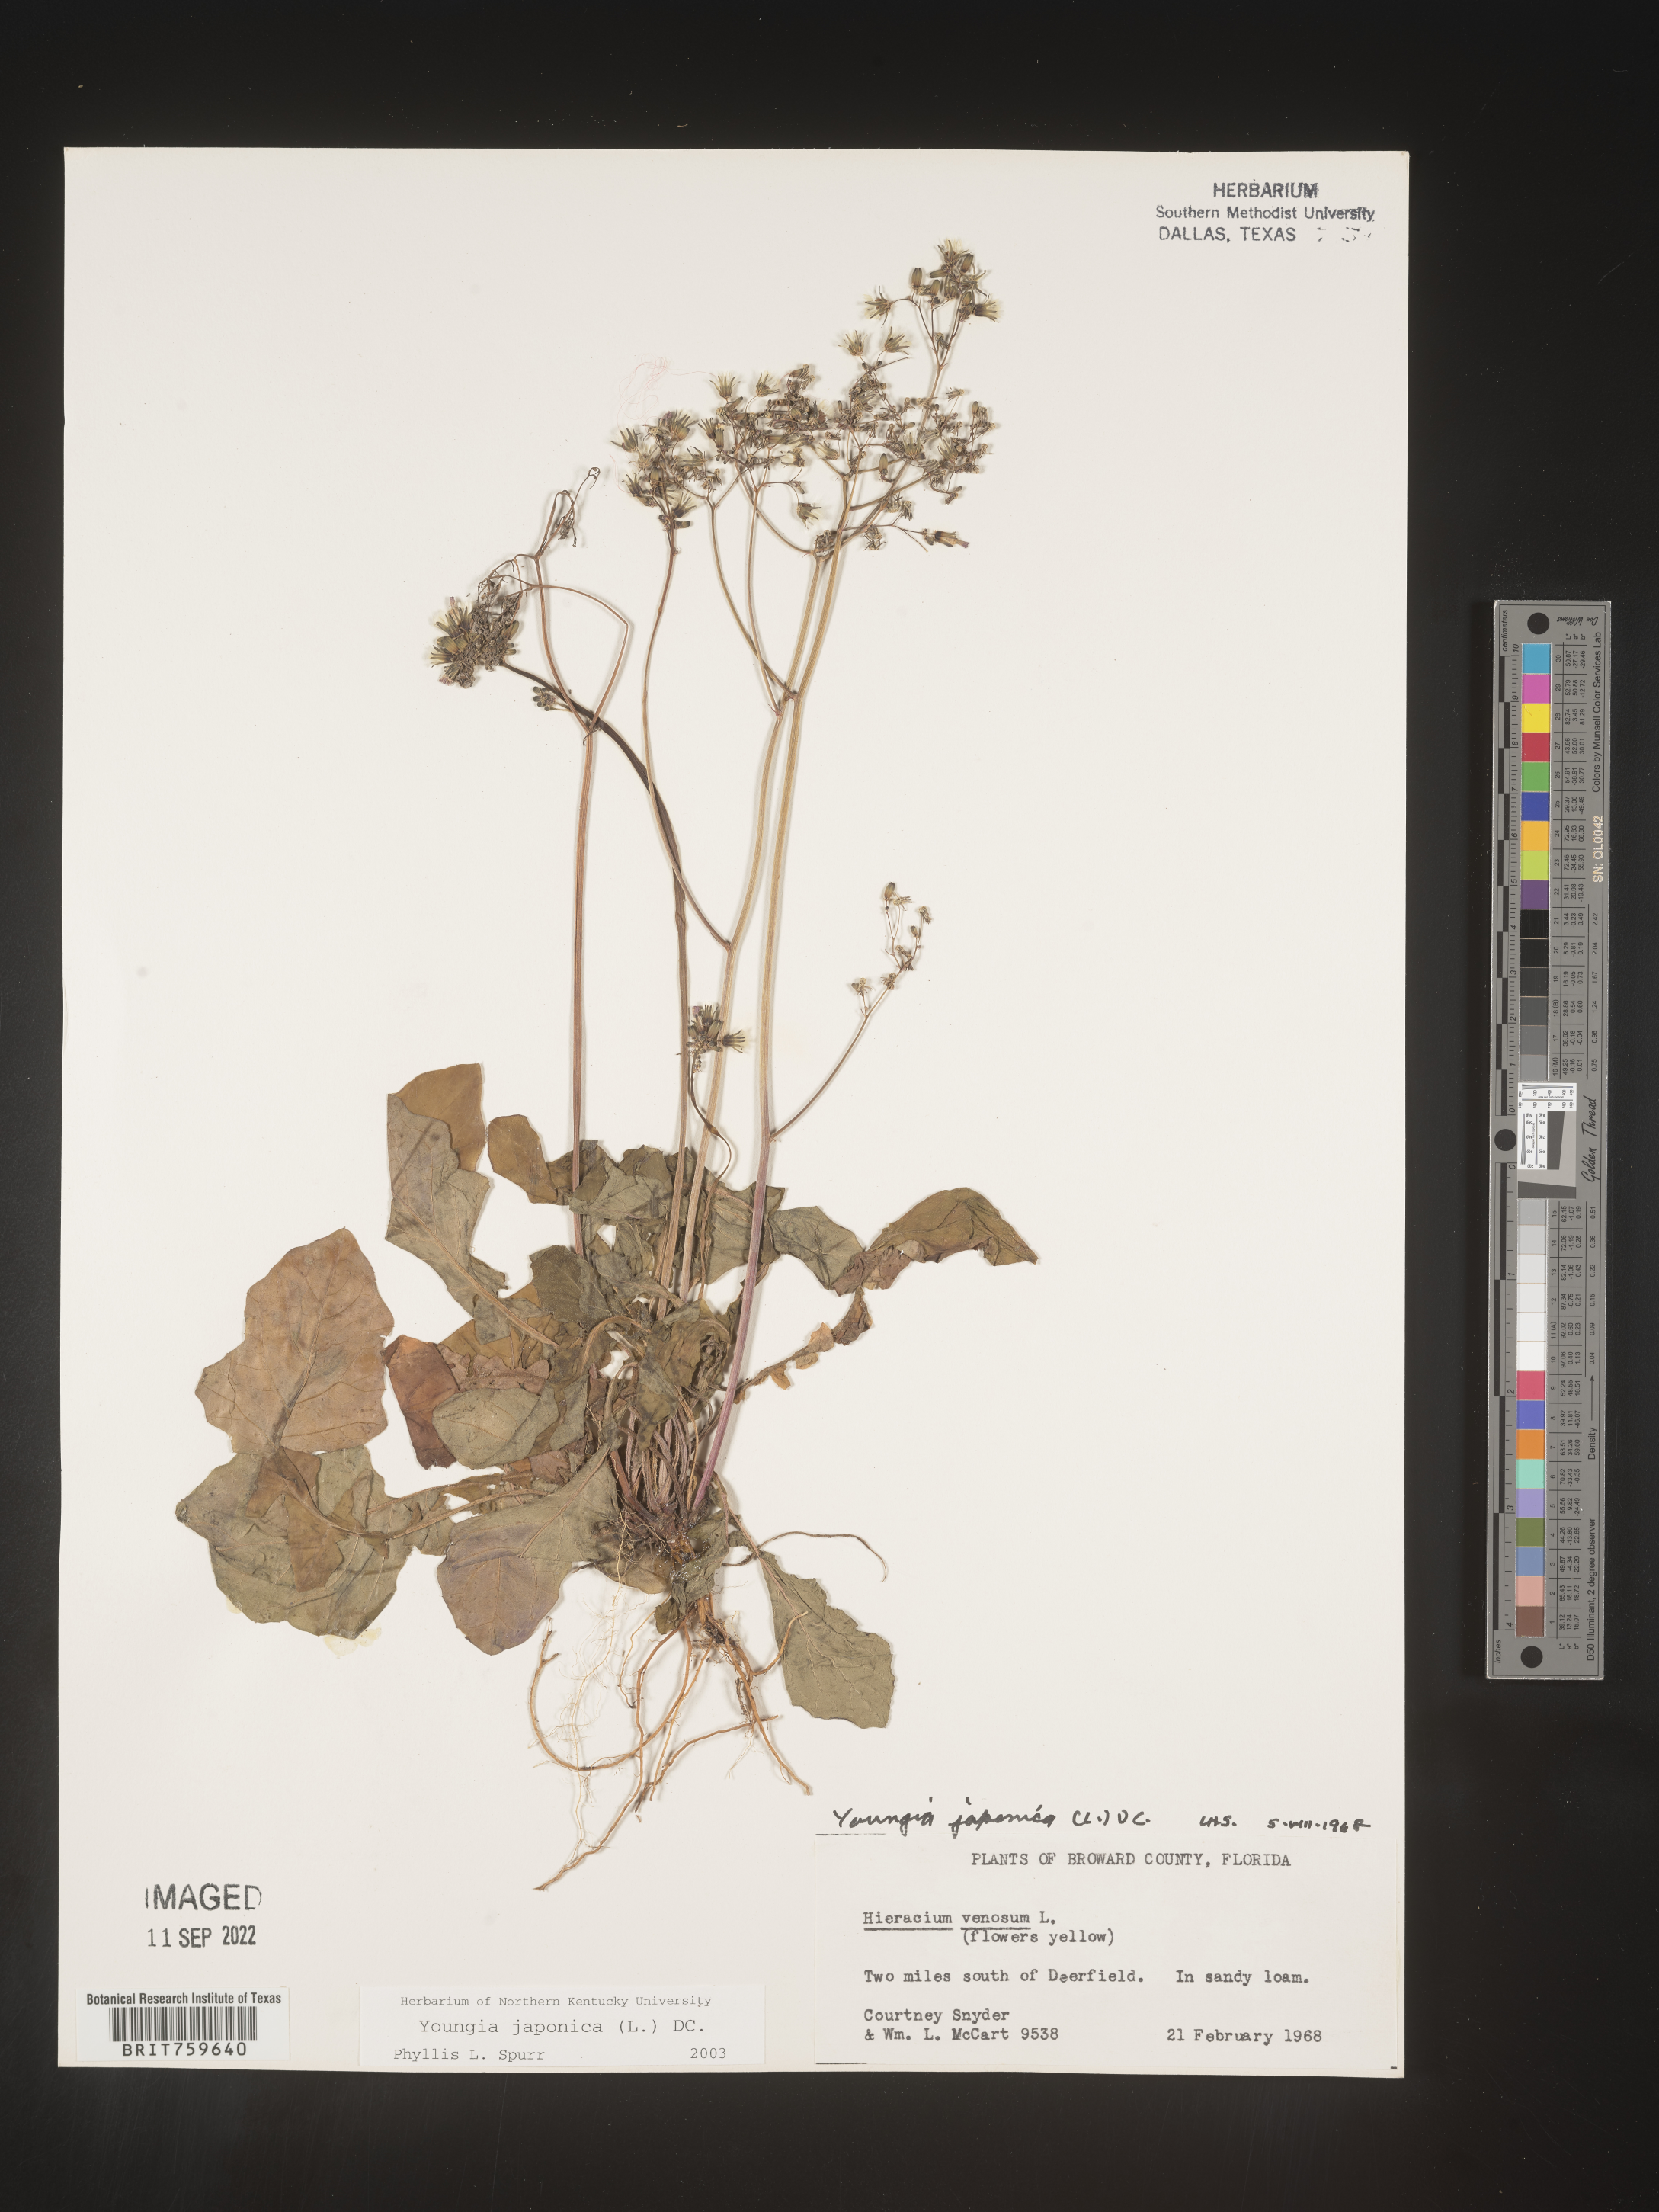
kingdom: Plantae
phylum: Tracheophyta
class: Magnoliopsida
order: Asterales
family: Asteraceae
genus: Youngia
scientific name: Youngia japonica
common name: Oriental false hawksbeard
